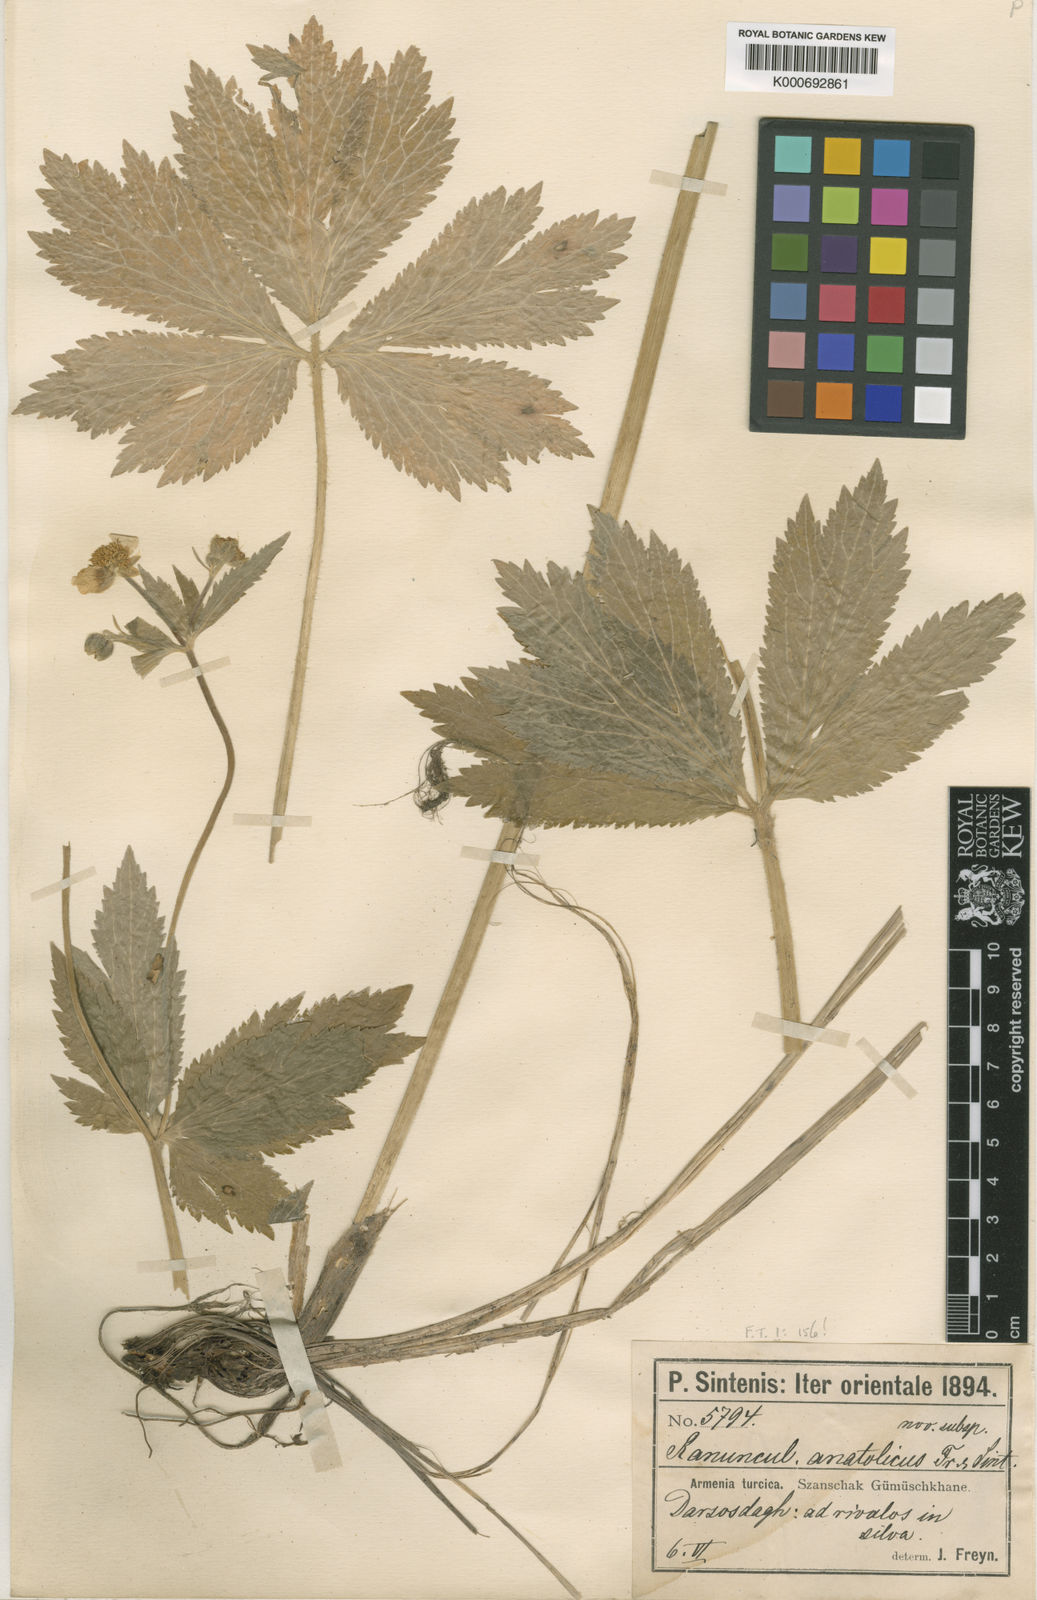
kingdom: Plantae
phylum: Tracheophyta
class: Magnoliopsida
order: Ranunculales
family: Ranunculaceae
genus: Ranunculus
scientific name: Ranunculus brutius
